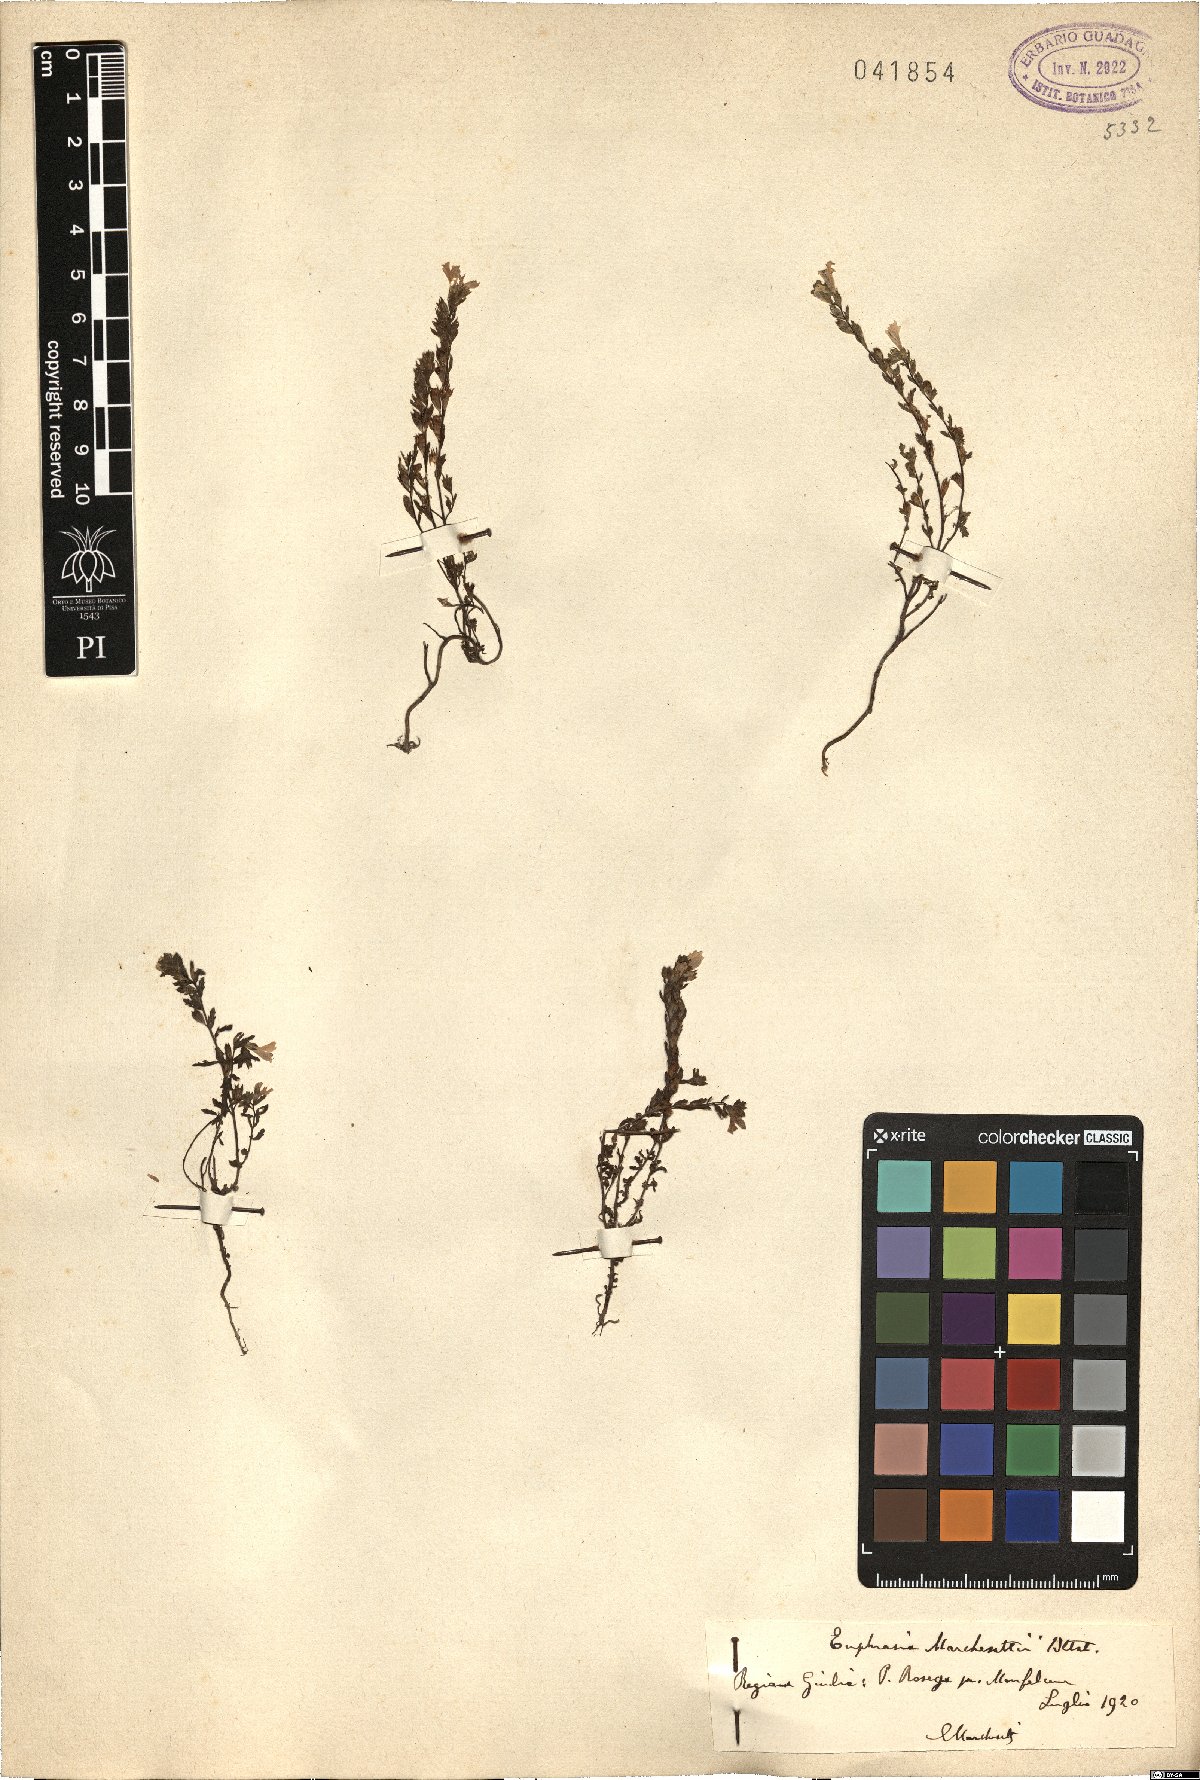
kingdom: Plantae
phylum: Tracheophyta
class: Magnoliopsida
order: Lamiales
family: Orobanchaceae
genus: Euphrasia
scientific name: Euphrasia marchesettii
